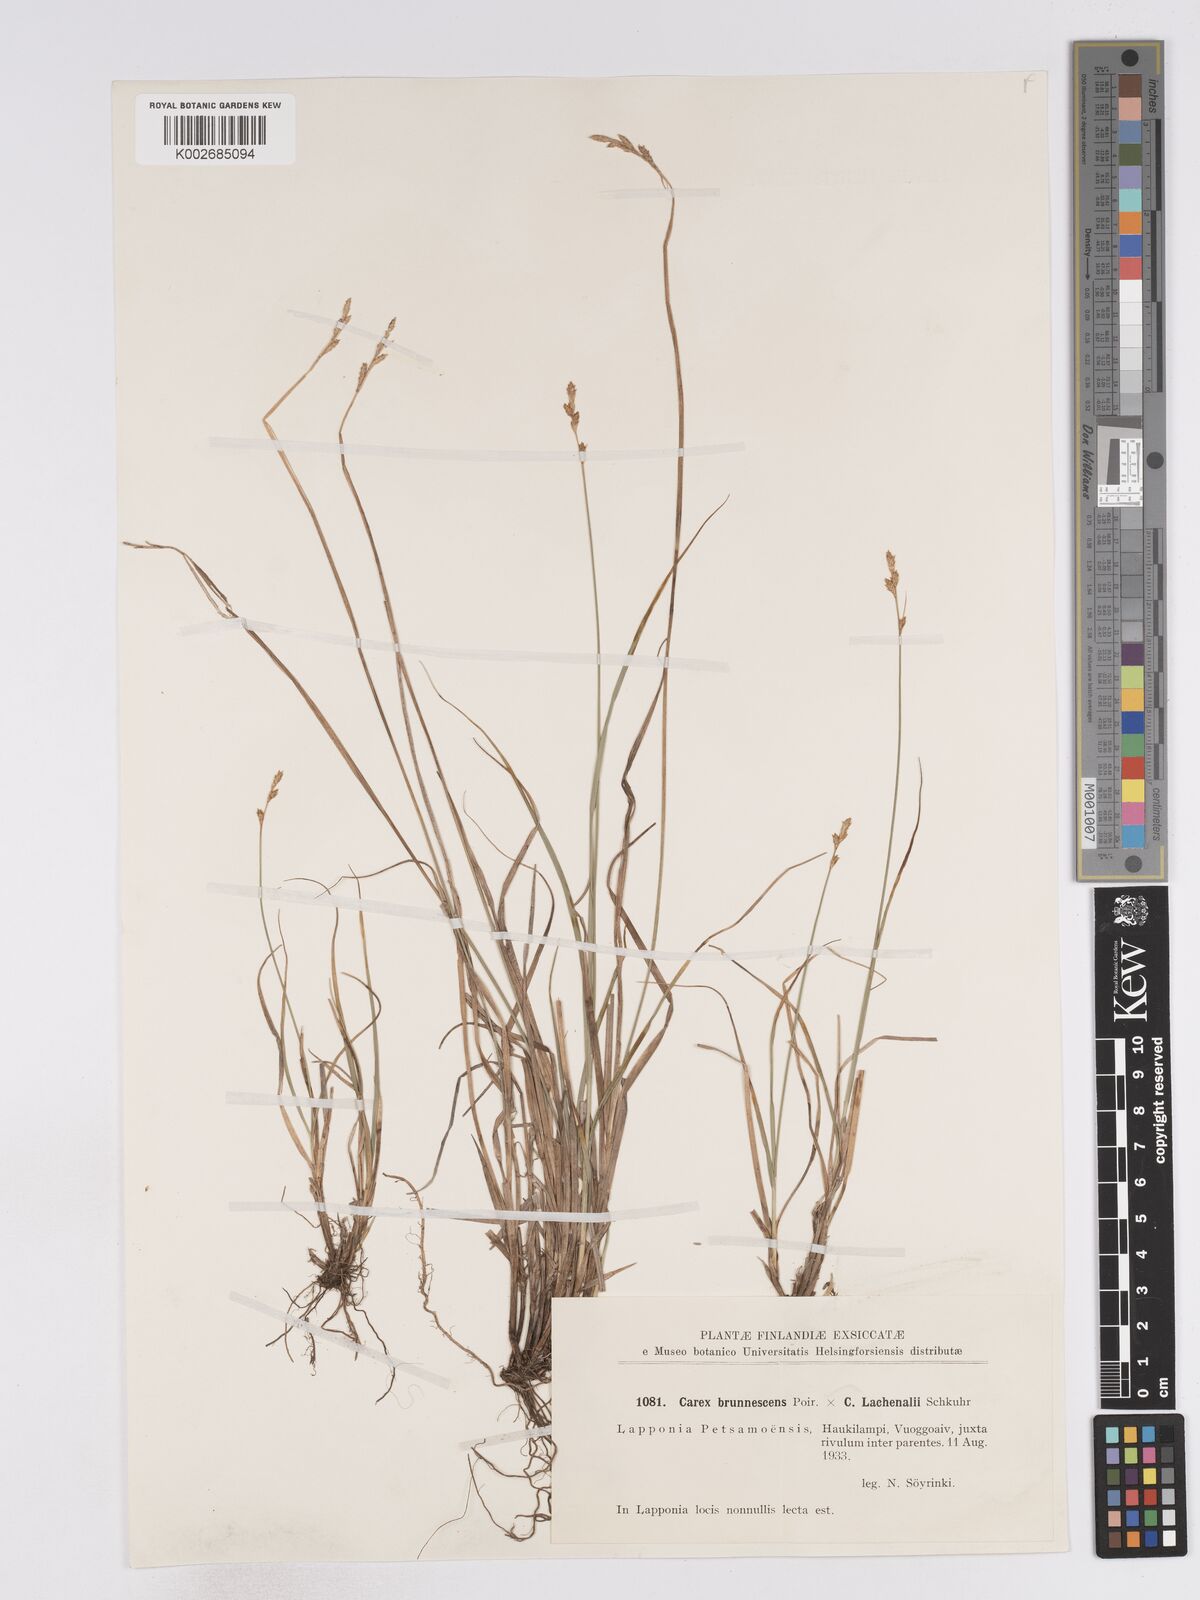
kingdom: Plantae
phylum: Tracheophyta
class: Liliopsida
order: Poales
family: Cyperaceae
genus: Carex
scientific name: Carex brunnescens
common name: Brown sedge
